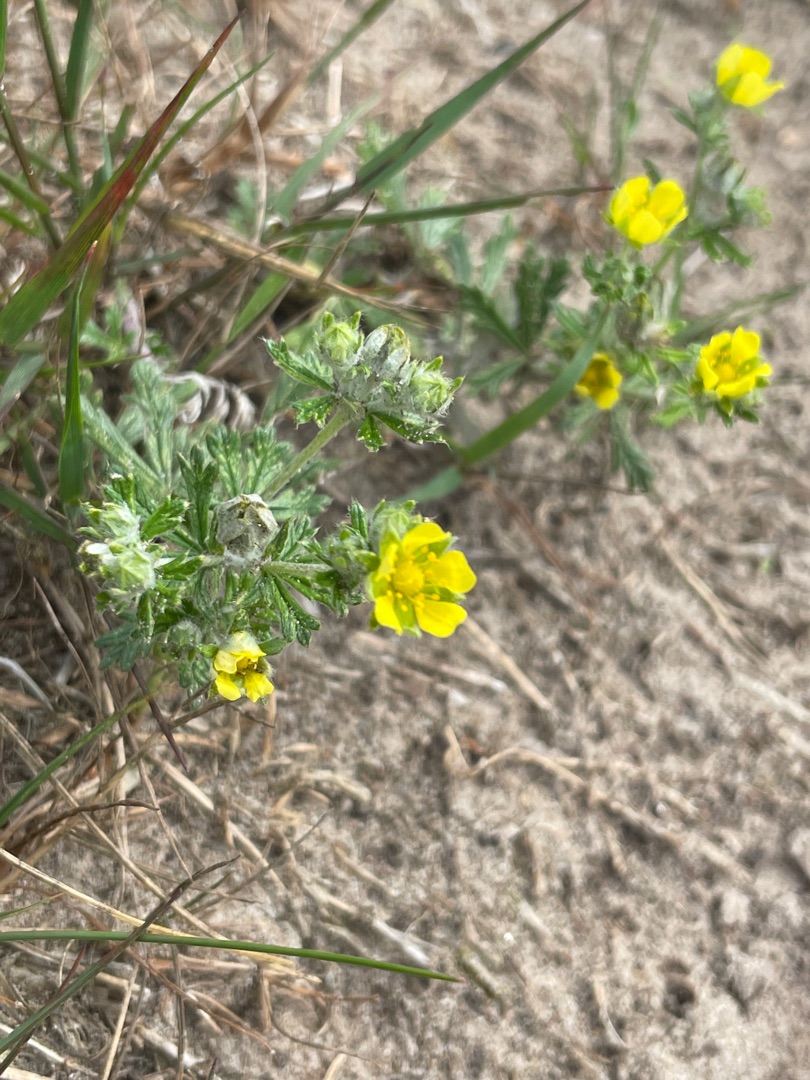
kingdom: Plantae
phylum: Tracheophyta
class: Magnoliopsida
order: Rosales
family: Rosaceae
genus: Potentilla
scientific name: Potentilla argentea
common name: Sølv-potentil
